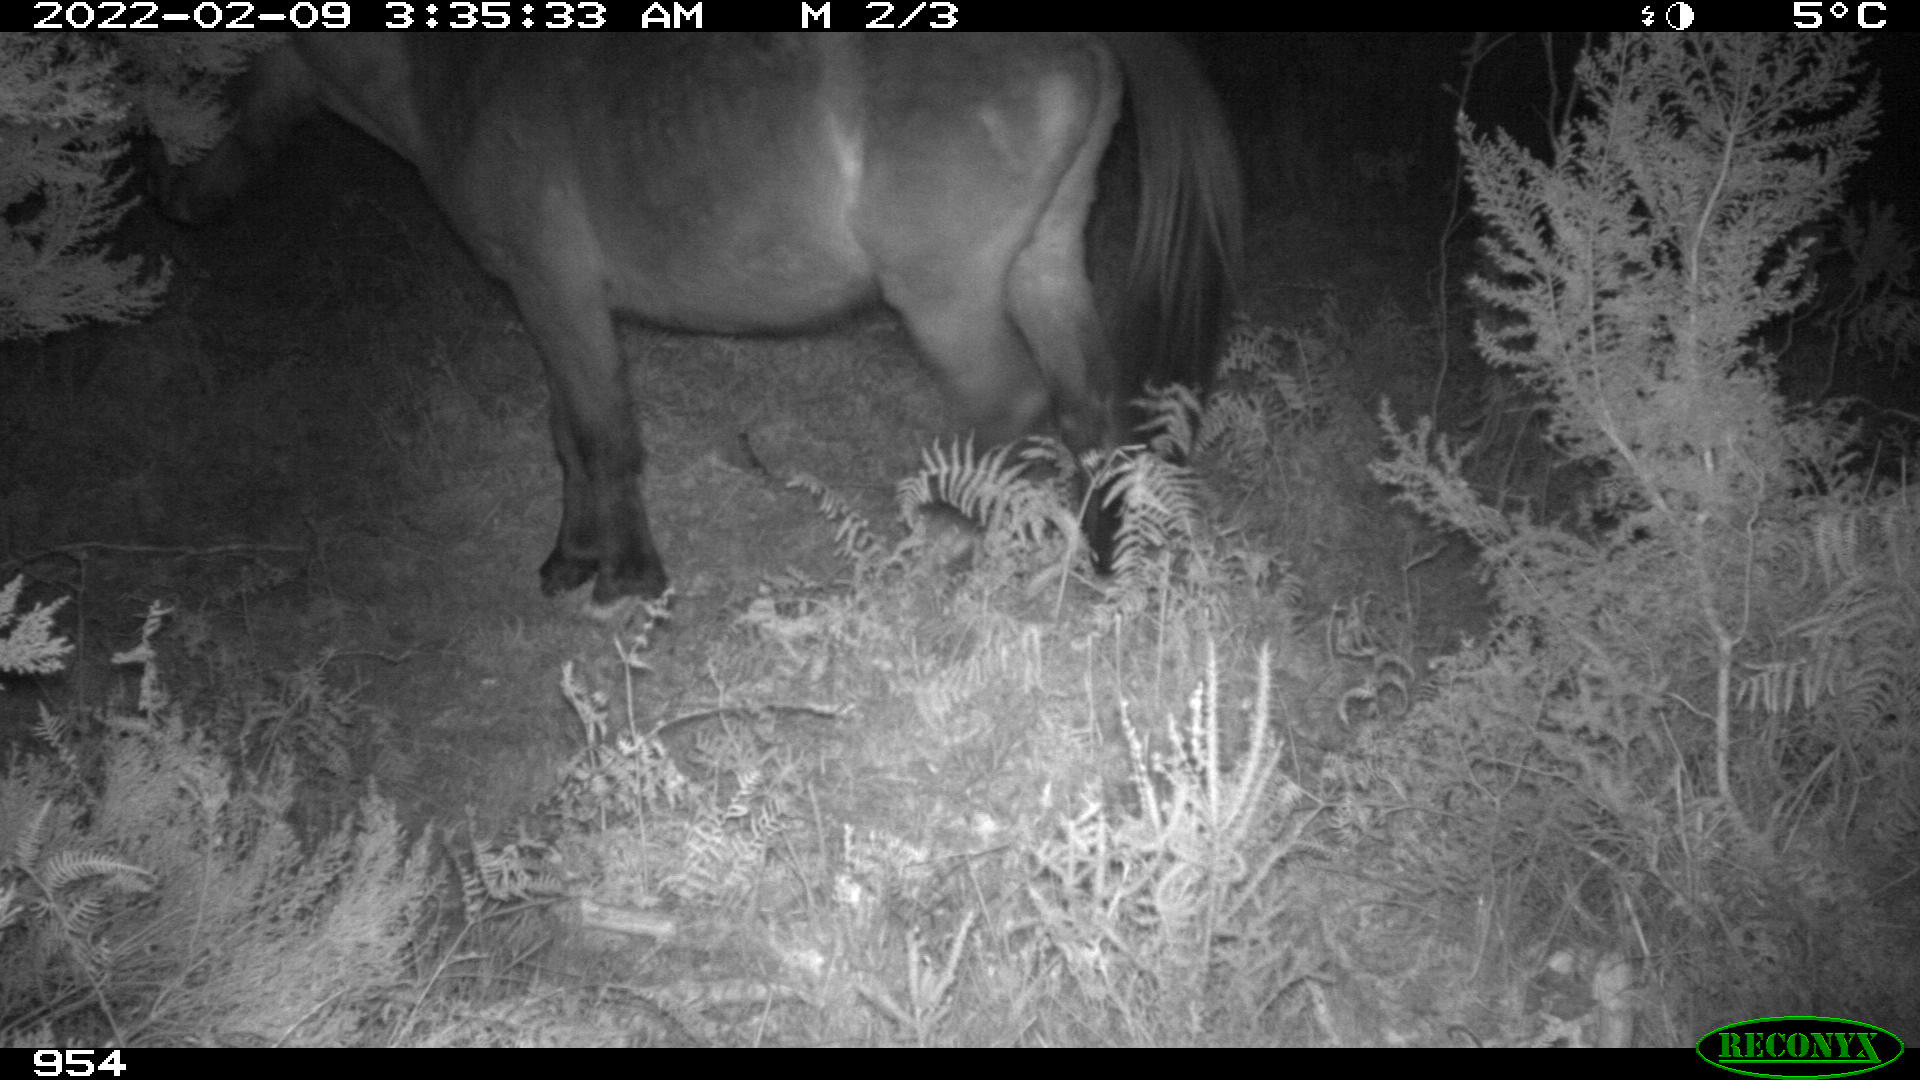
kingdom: Animalia
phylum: Chordata
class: Mammalia
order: Perissodactyla
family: Equidae
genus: Equus
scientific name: Equus caballus
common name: Horse
